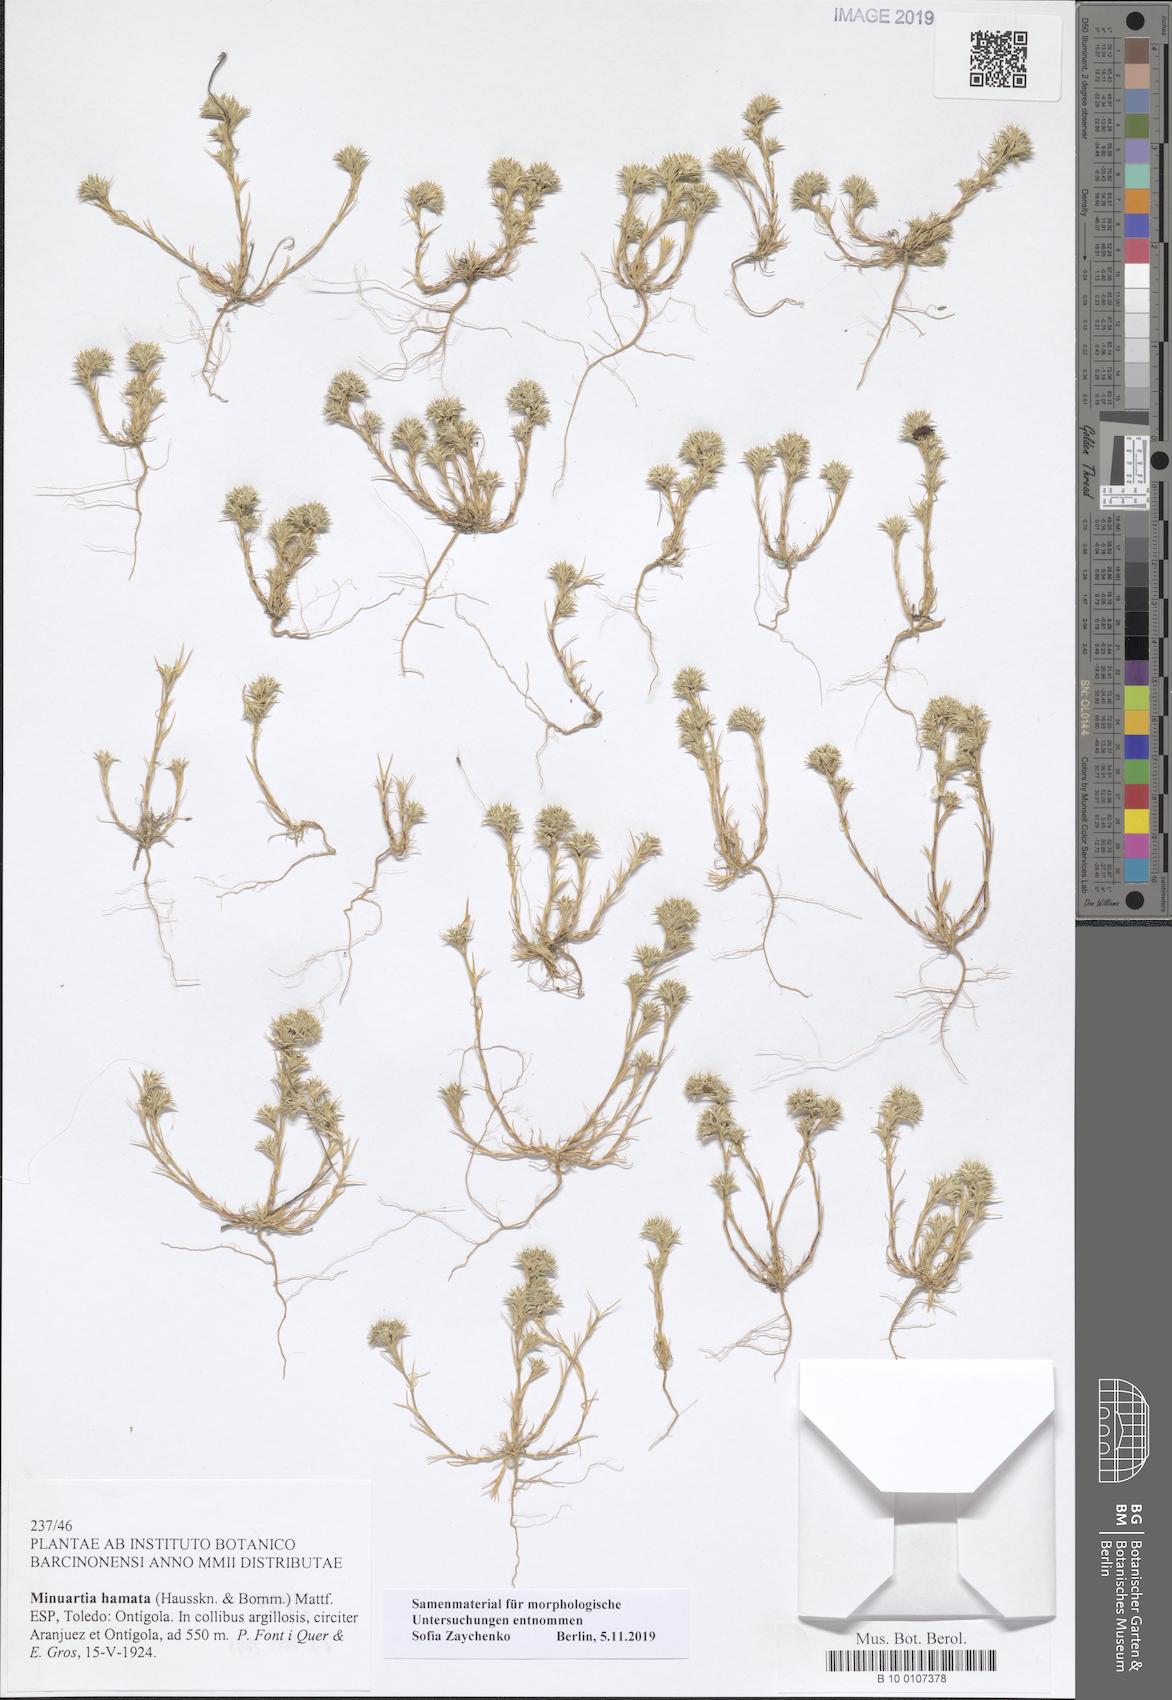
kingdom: Plantae
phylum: Tracheophyta
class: Magnoliopsida
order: Caryophyllales
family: Caryophyllaceae
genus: Minuartia
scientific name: Minuartia hamata
